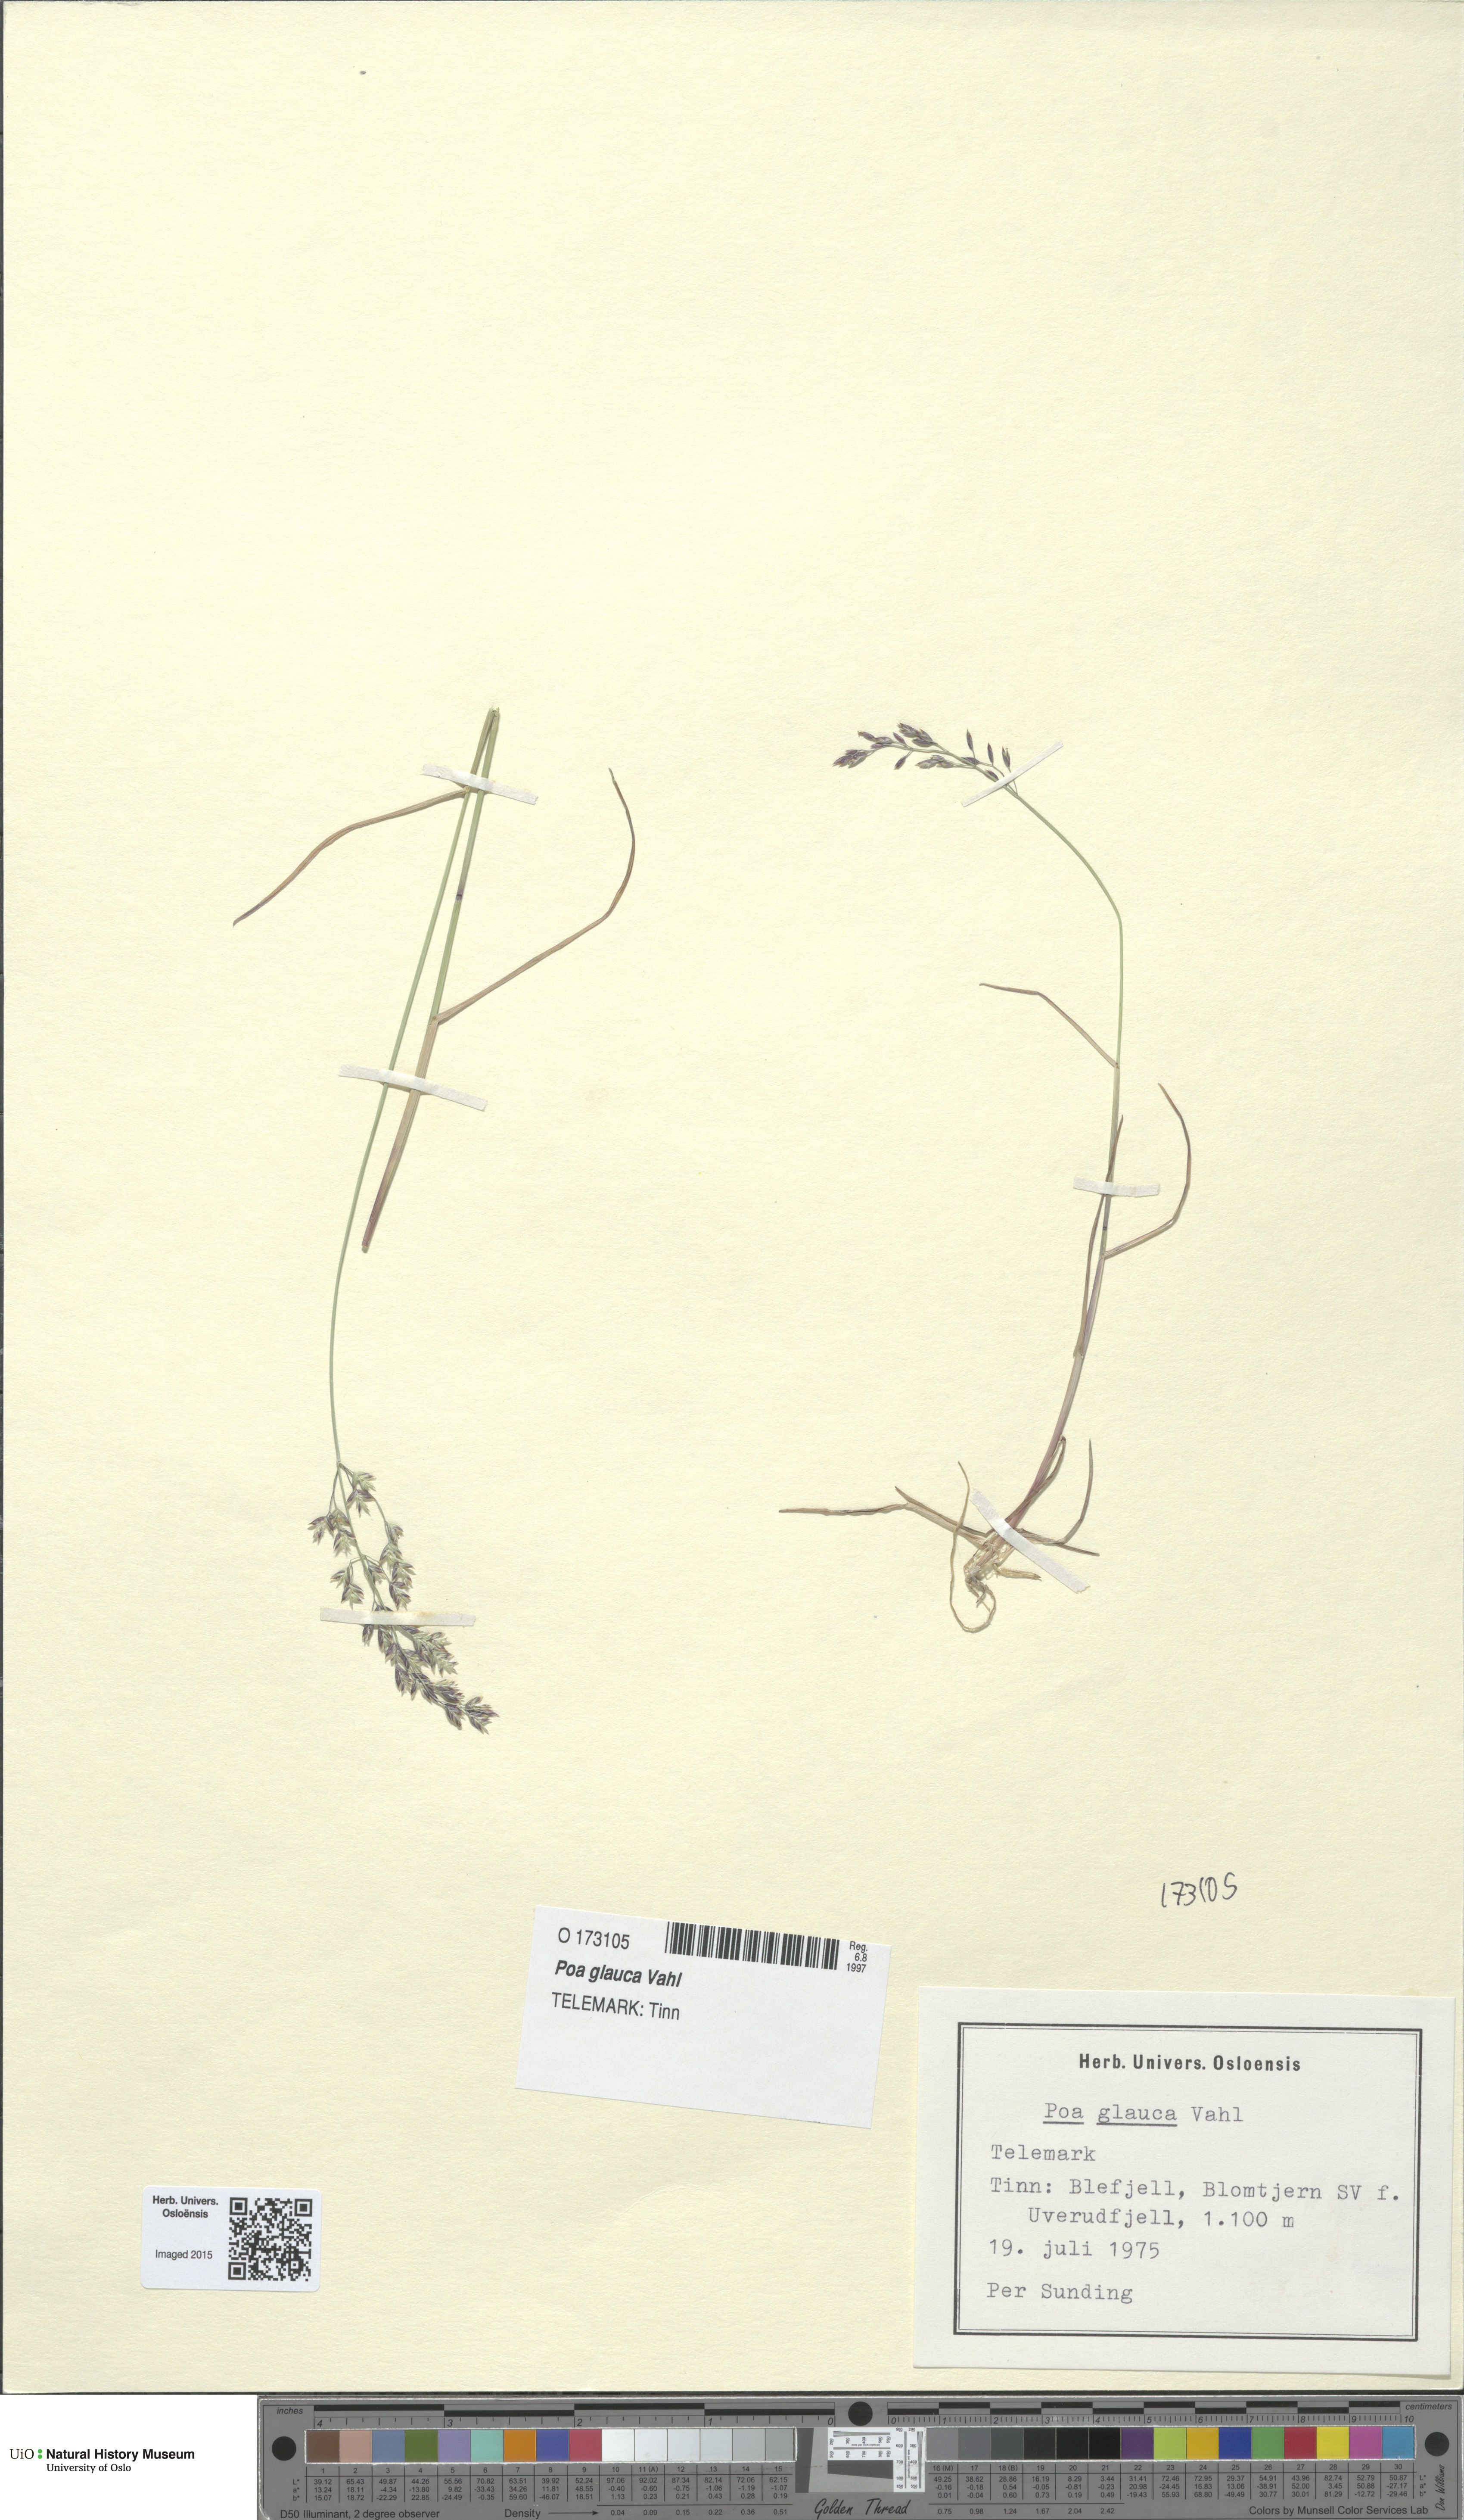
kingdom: Plantae
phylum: Tracheophyta
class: Liliopsida
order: Poales
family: Poaceae
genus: Poa
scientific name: Poa glauca
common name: Glaucous bluegrass
